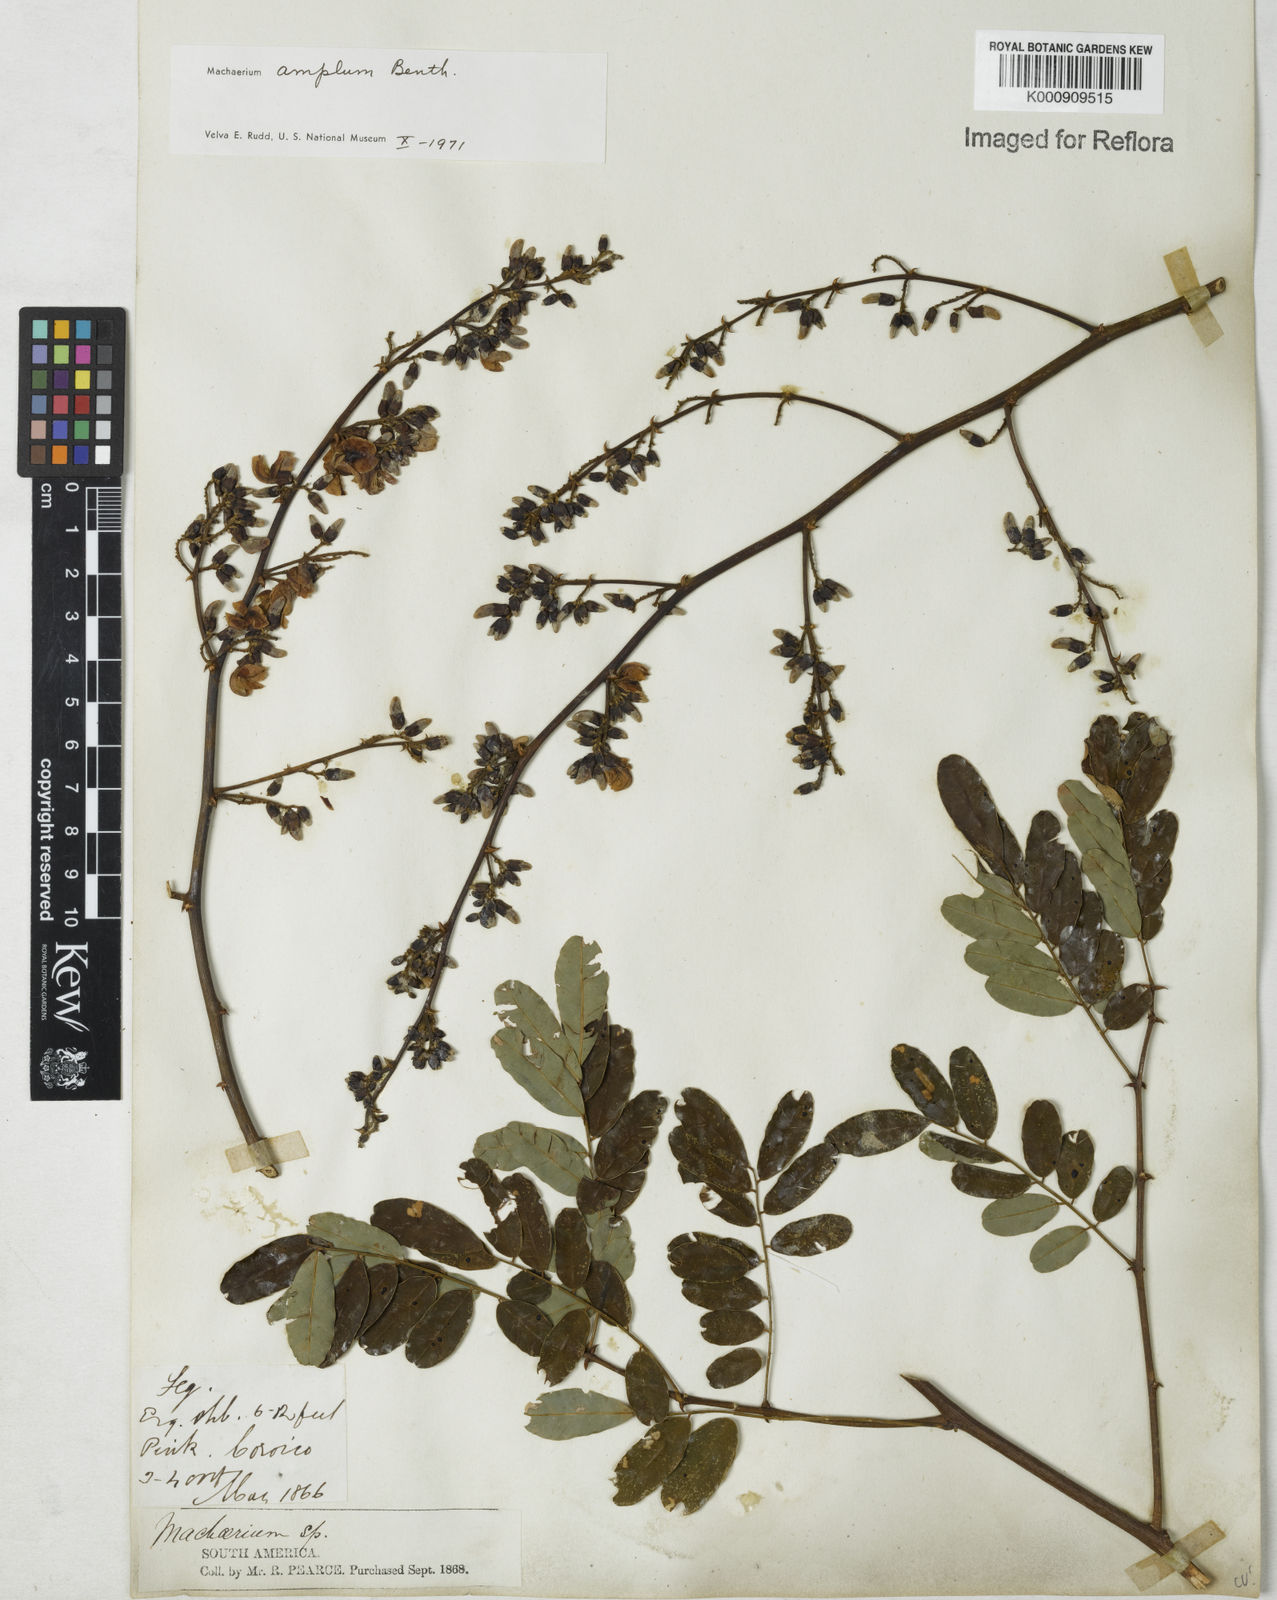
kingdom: Plantae
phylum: Tracheophyta
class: Magnoliopsida
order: Fabales
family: Fabaceae
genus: Machaerium
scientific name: Machaerium amplum
